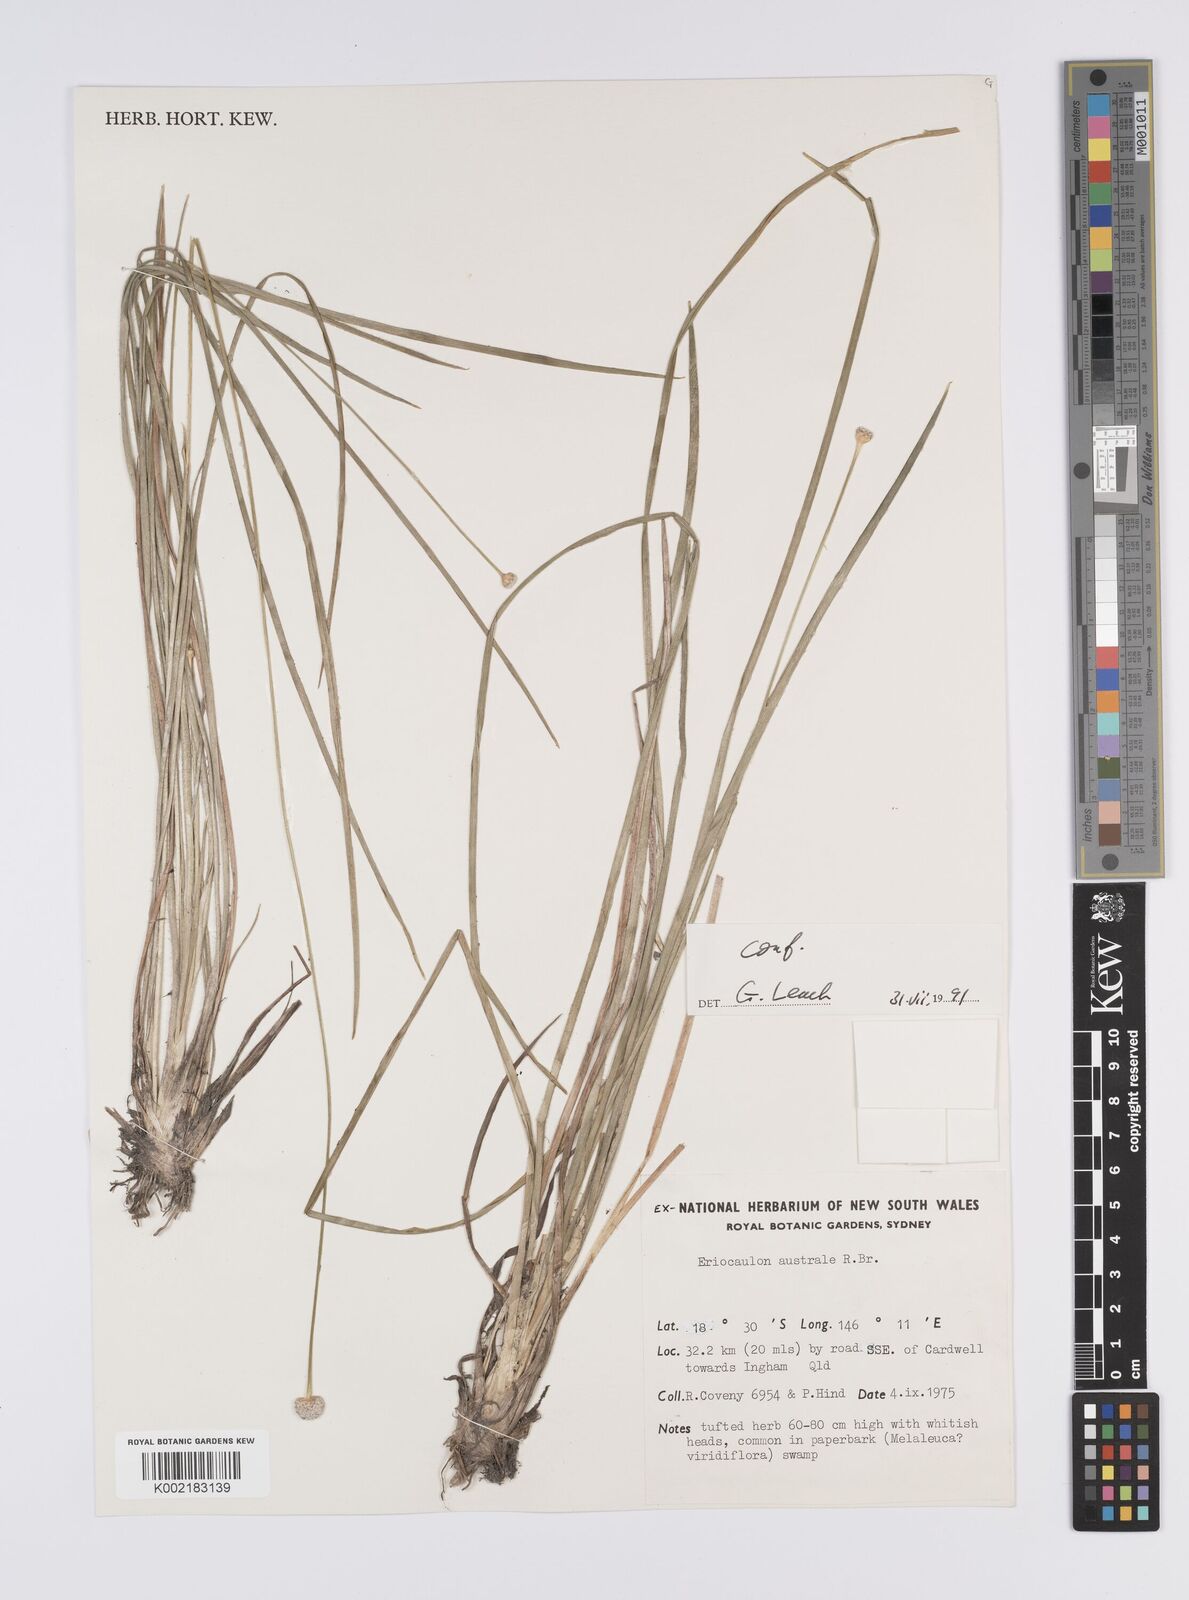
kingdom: Plantae
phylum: Tracheophyta
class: Liliopsida
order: Poales
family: Eriocaulaceae
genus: Eriocaulon
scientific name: Eriocaulon australe
